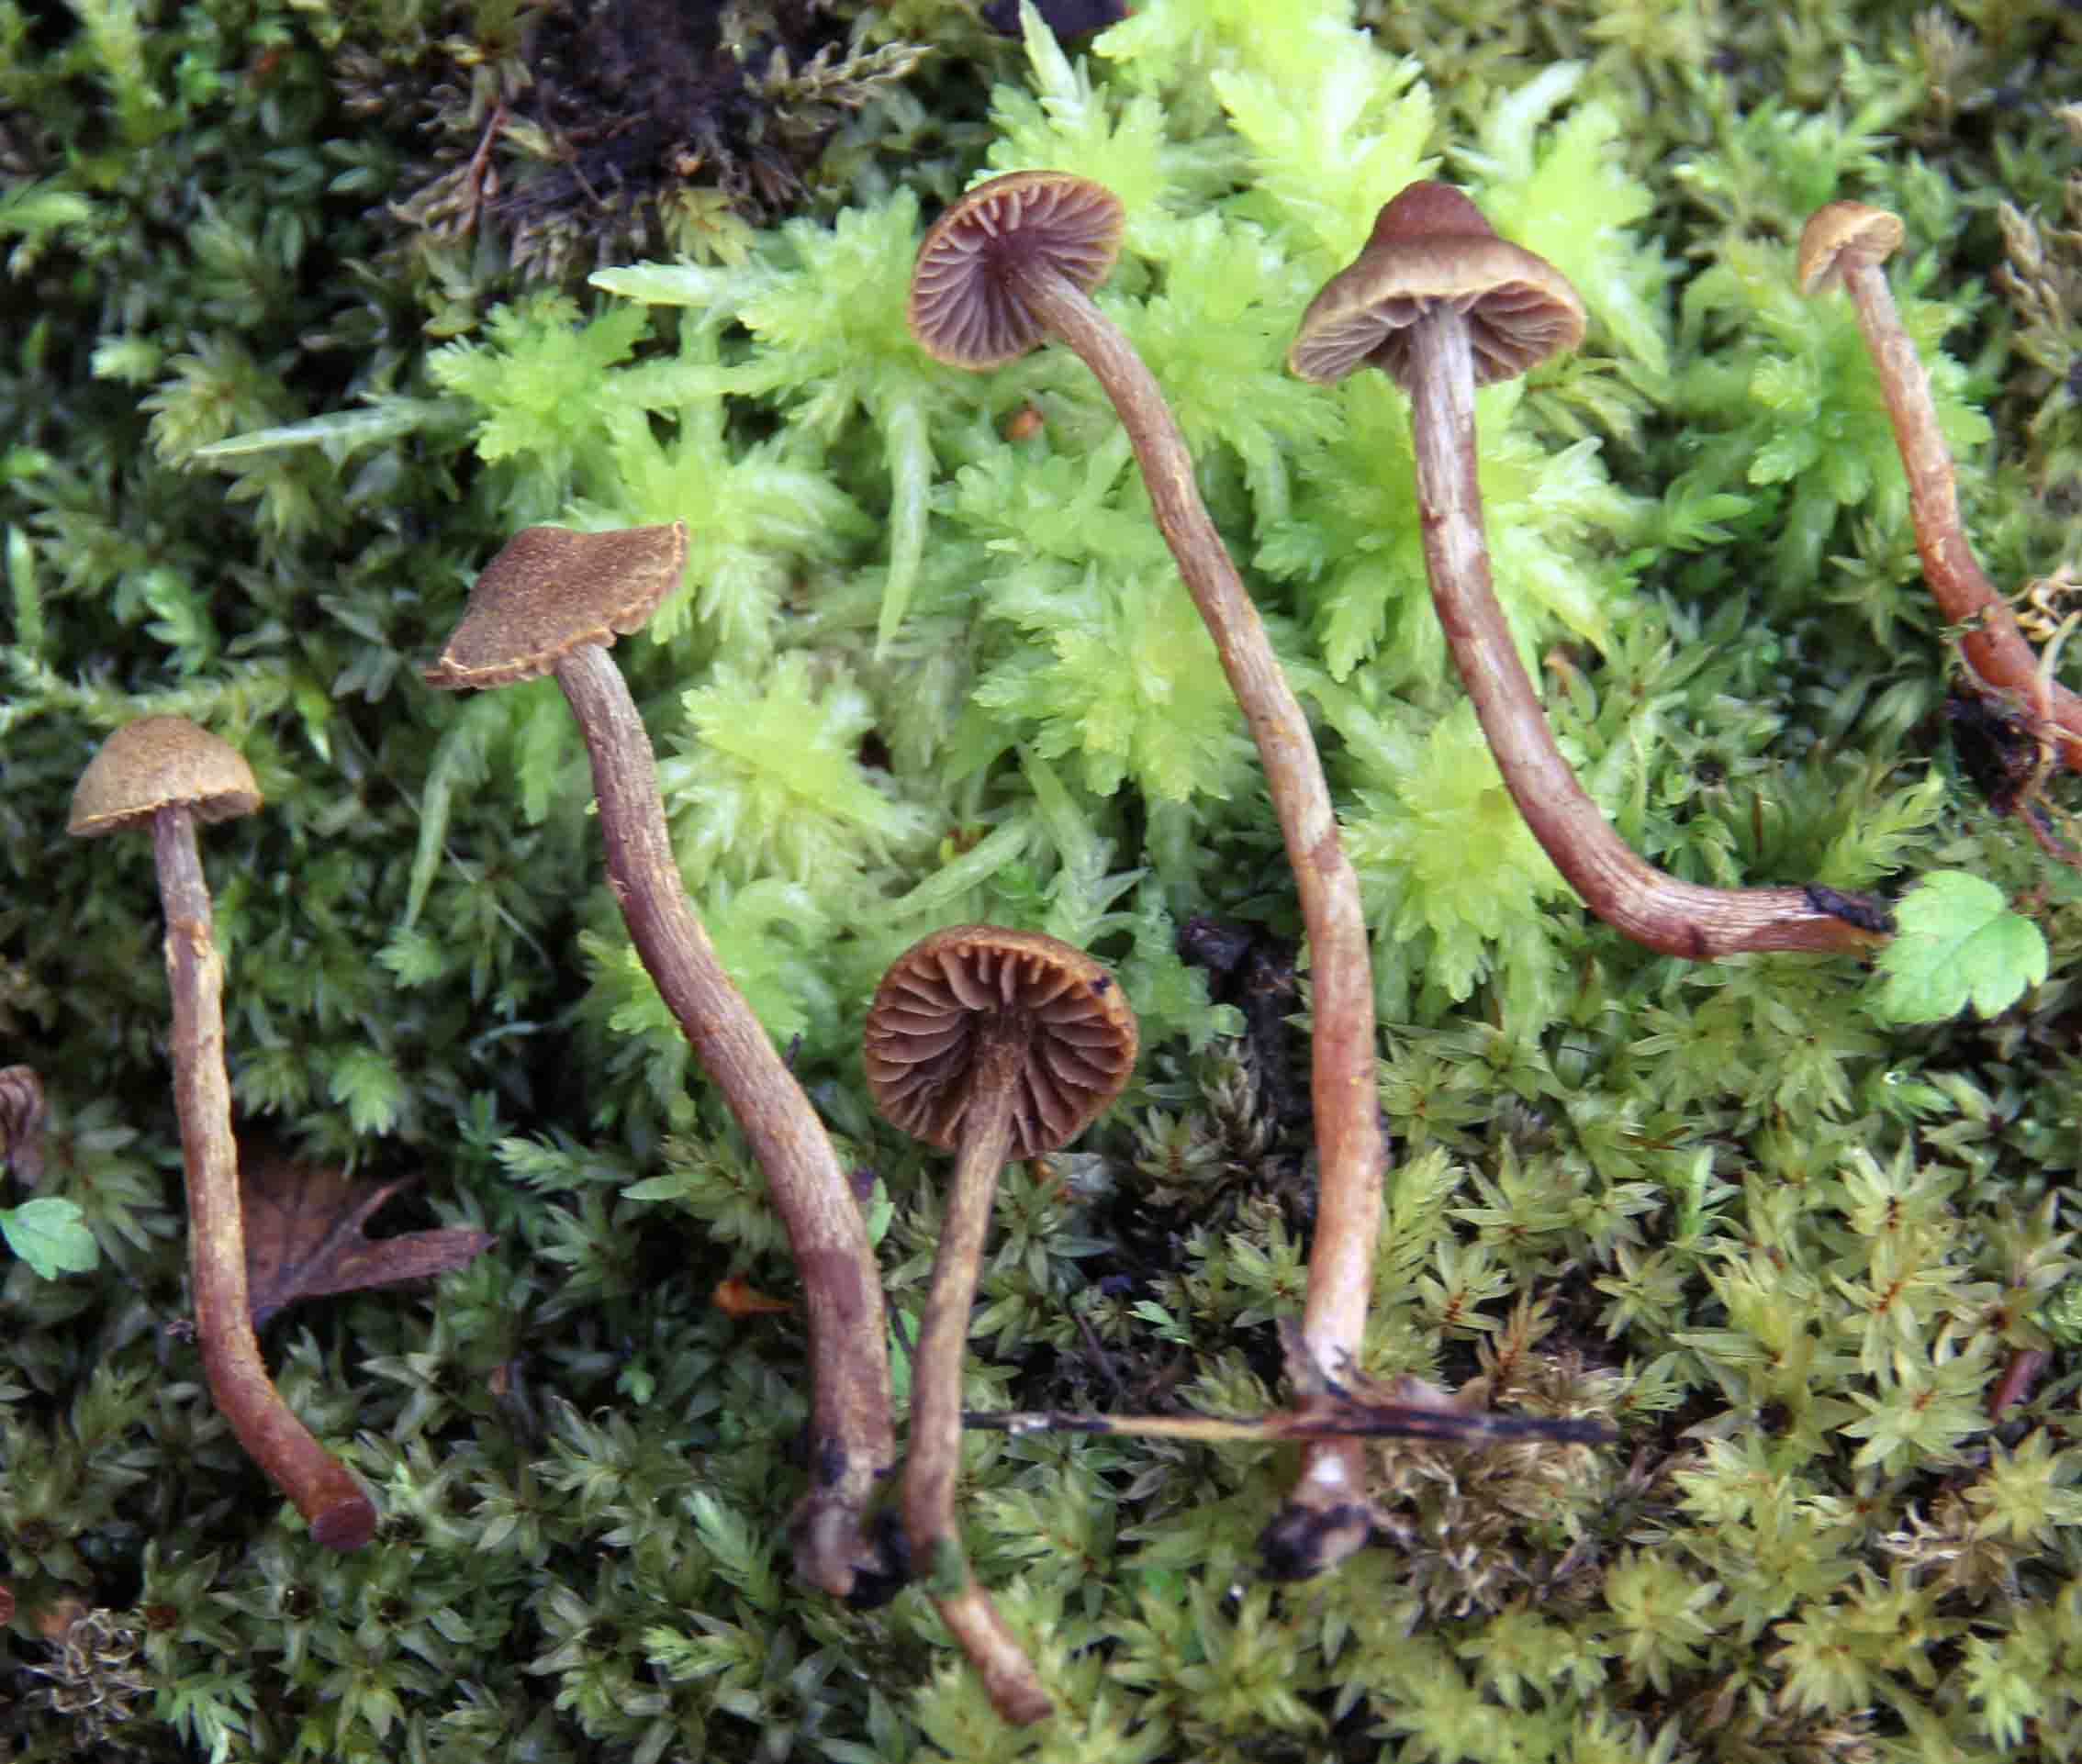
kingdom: Fungi
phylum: Basidiomycota
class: Agaricomycetes
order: Agaricales
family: Cortinariaceae
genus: Cortinarius
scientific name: Cortinarius helvelloides
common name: fjernbladet slørhat
